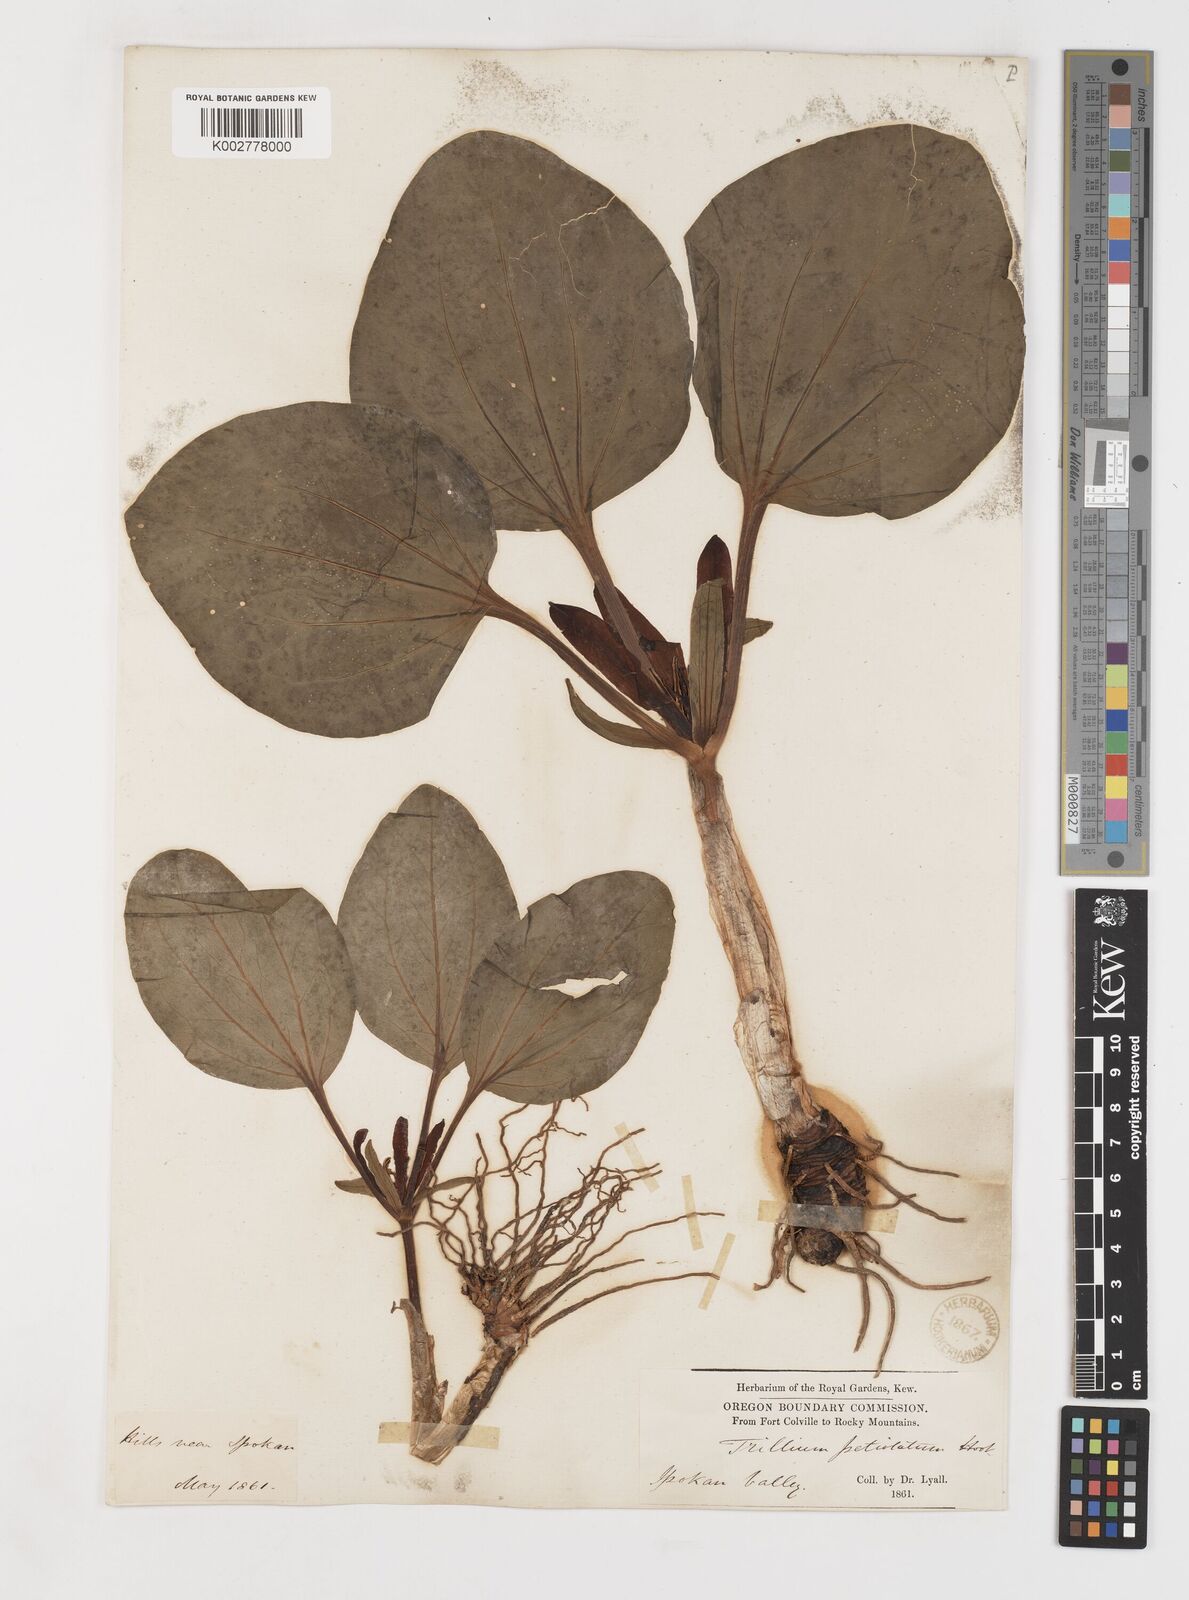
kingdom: Plantae
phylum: Tracheophyta
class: Liliopsida
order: Liliales
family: Melanthiaceae
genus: Trillium
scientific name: Trillium petiolatum
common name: Idaho trillium
